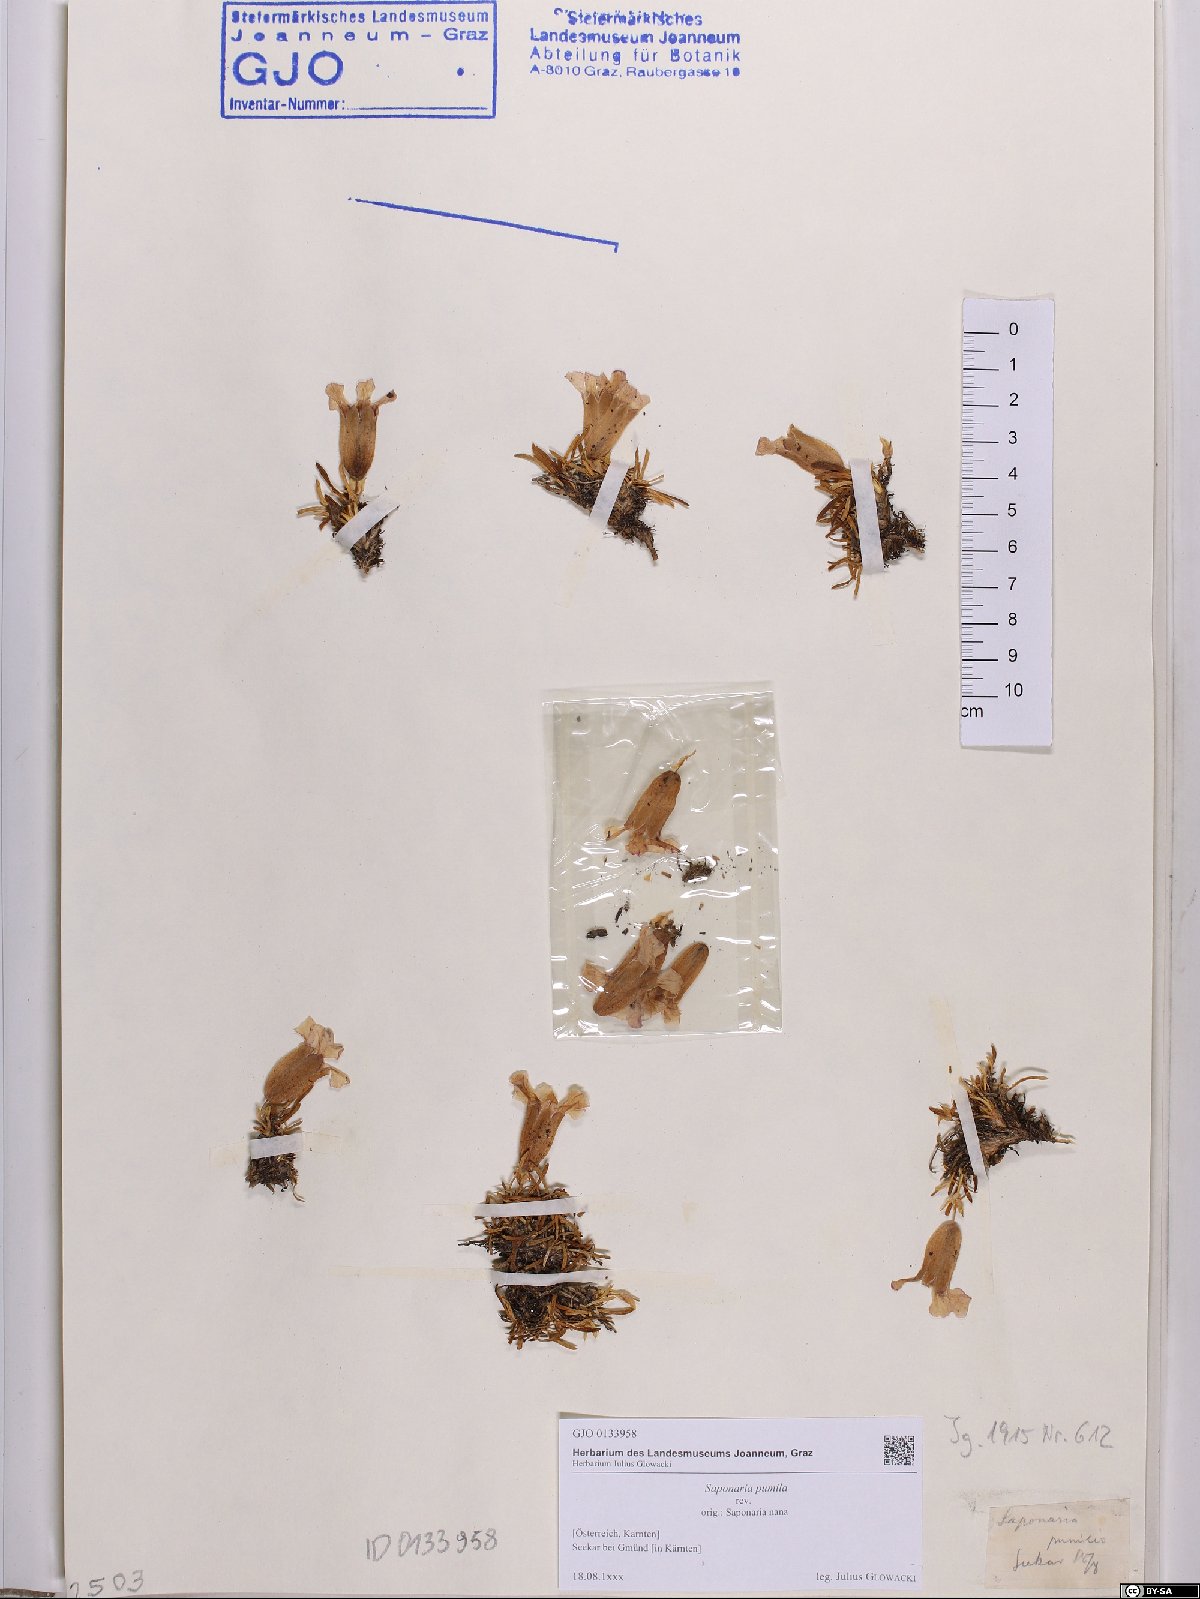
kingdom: Plantae
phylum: Tracheophyta
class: Magnoliopsida
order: Caryophyllales
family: Caryophyllaceae
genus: Saponaria
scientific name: Saponaria pumila
